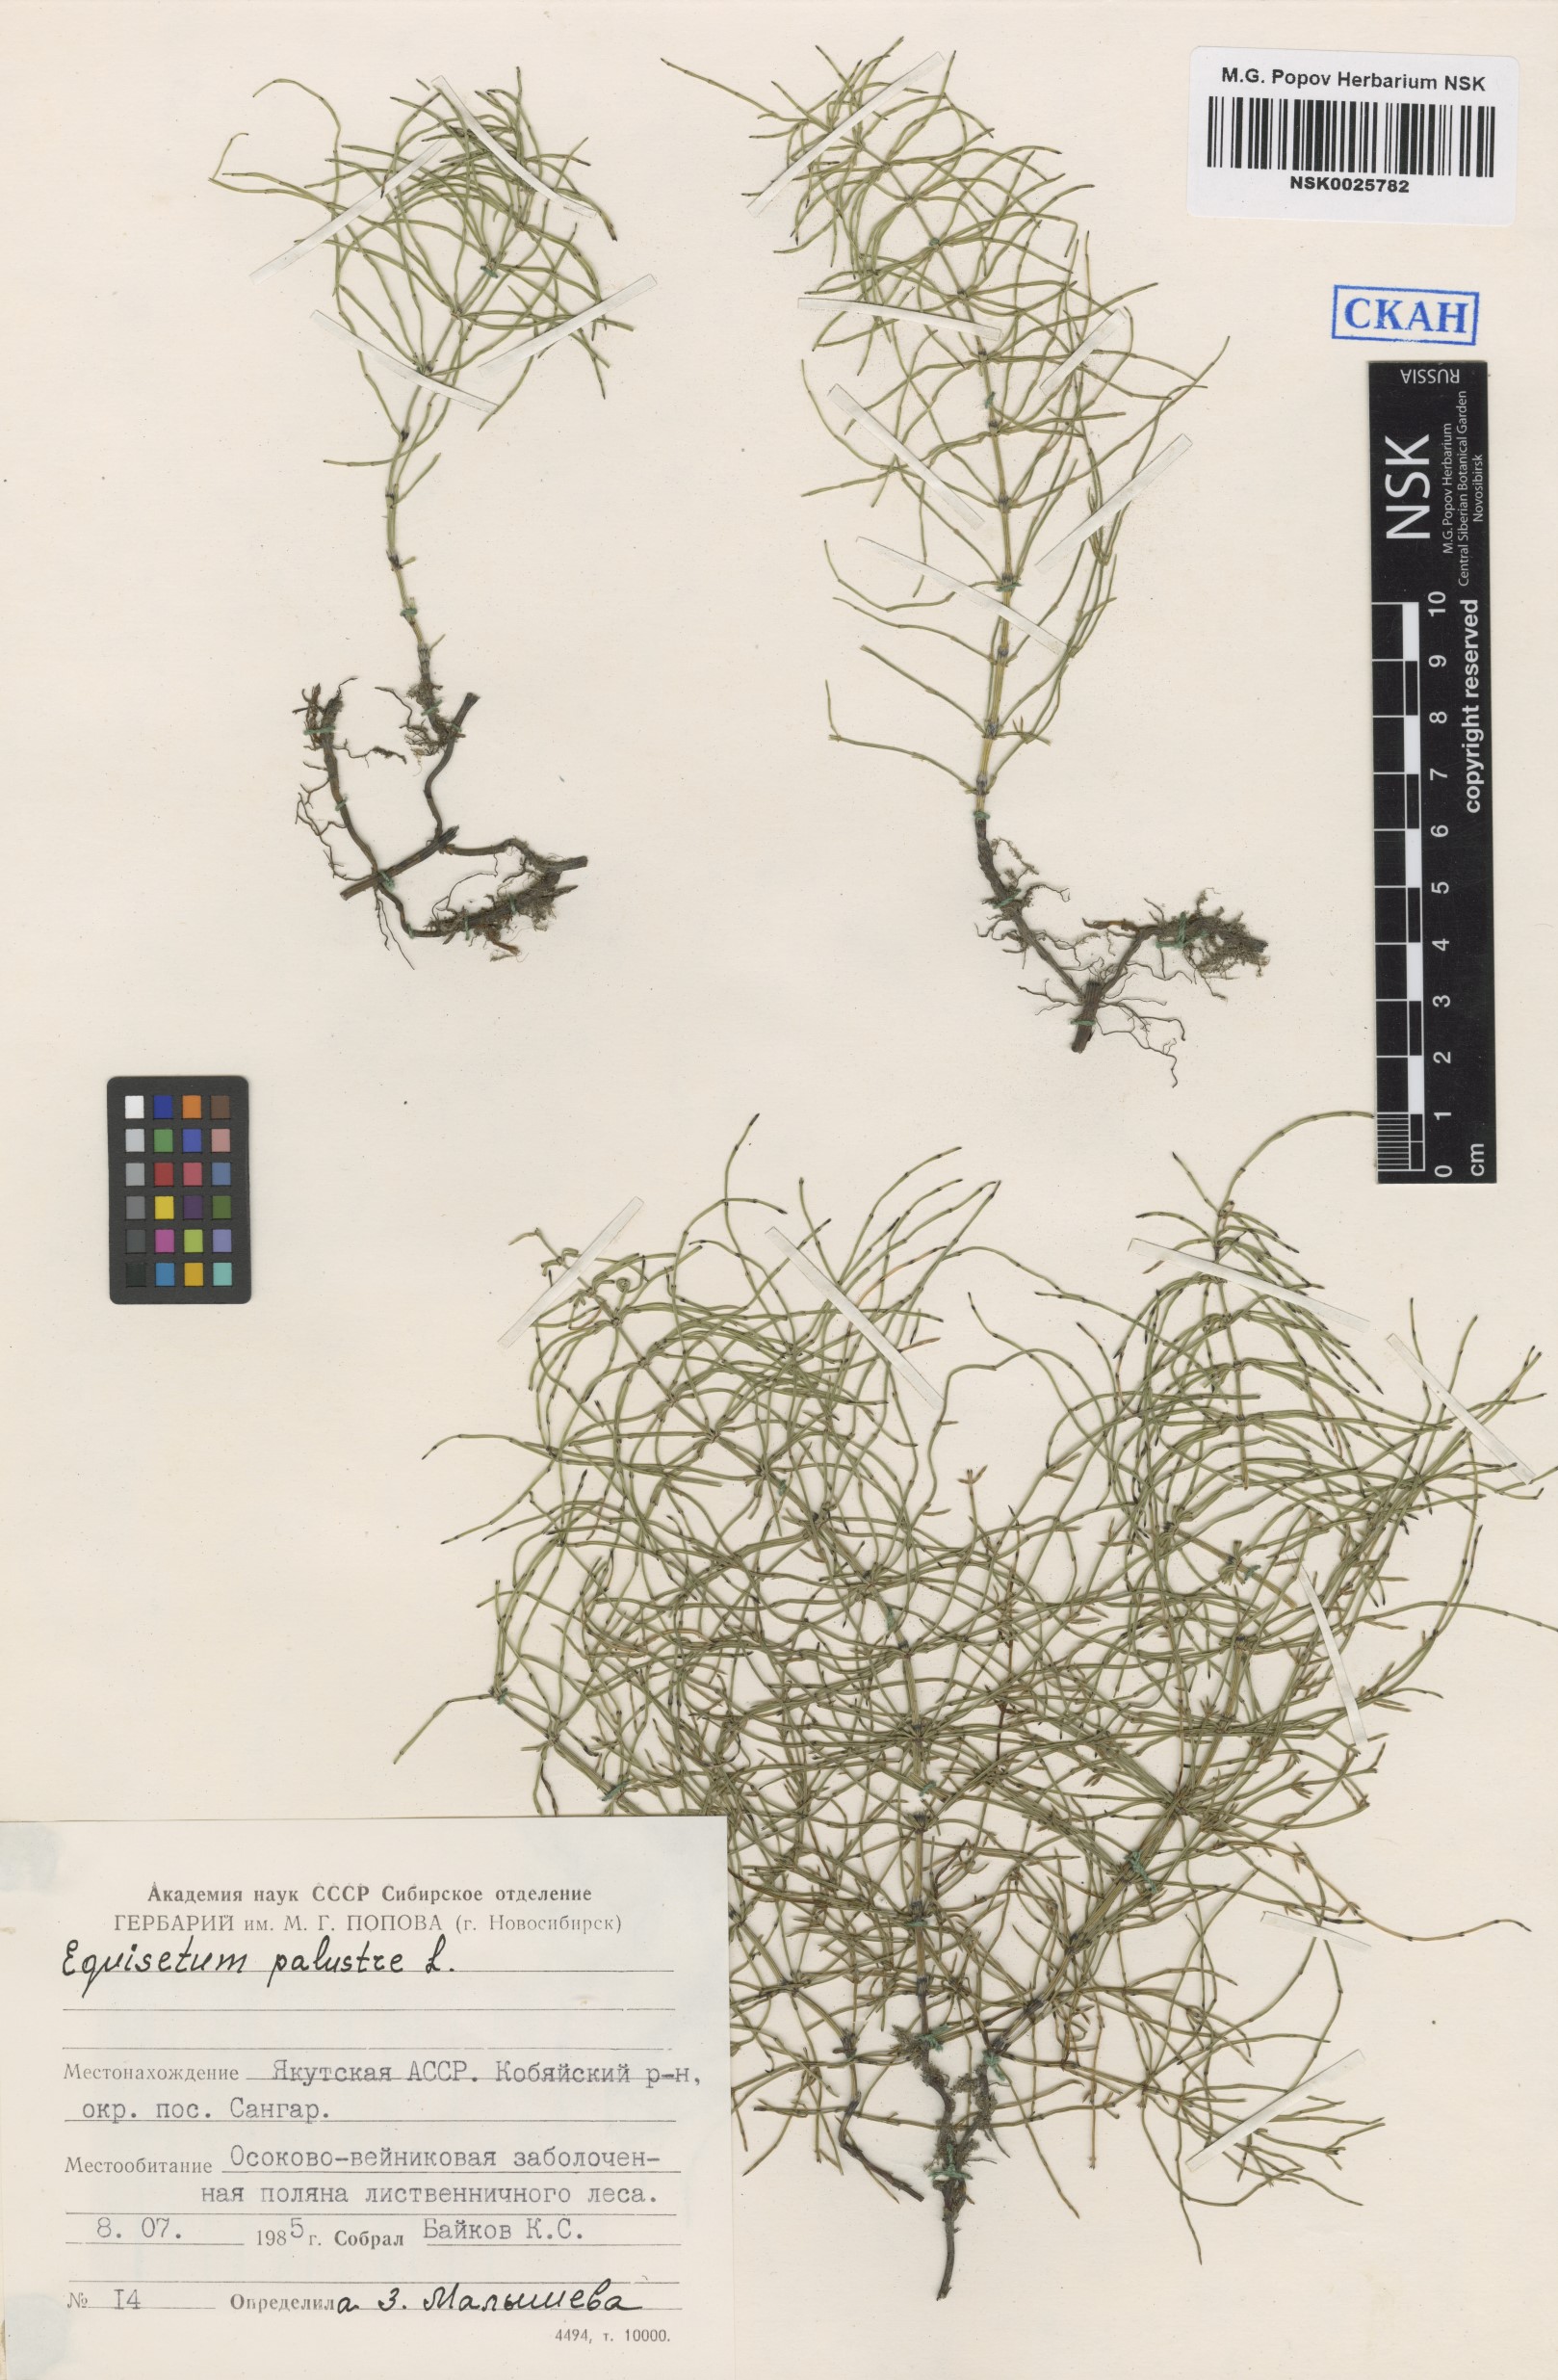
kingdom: Plantae
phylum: Tracheophyta
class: Polypodiopsida
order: Equisetales
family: Equisetaceae
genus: Equisetum
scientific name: Equisetum palustre
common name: Marsh horsetail
